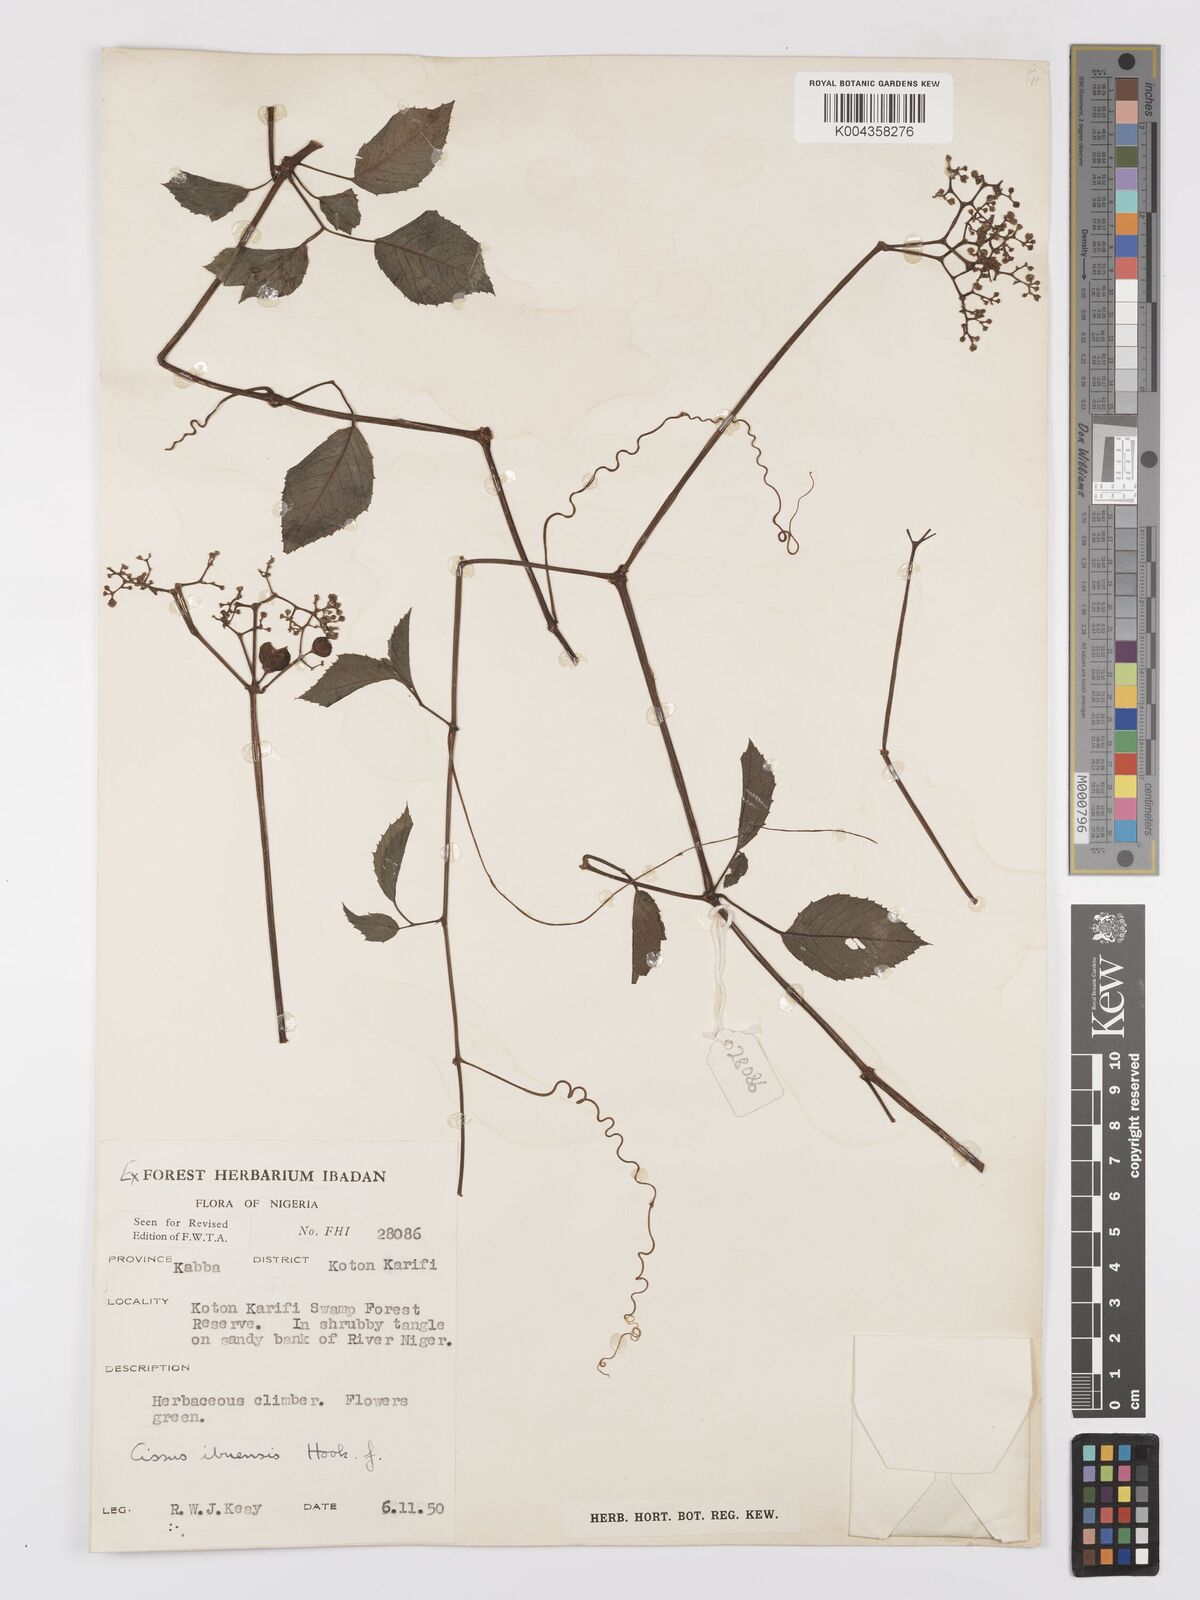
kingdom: Plantae
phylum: Tracheophyta
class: Magnoliopsida
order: Vitales
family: Vitaceae
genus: Afrocayratia
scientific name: Afrocayratia ibuensis
